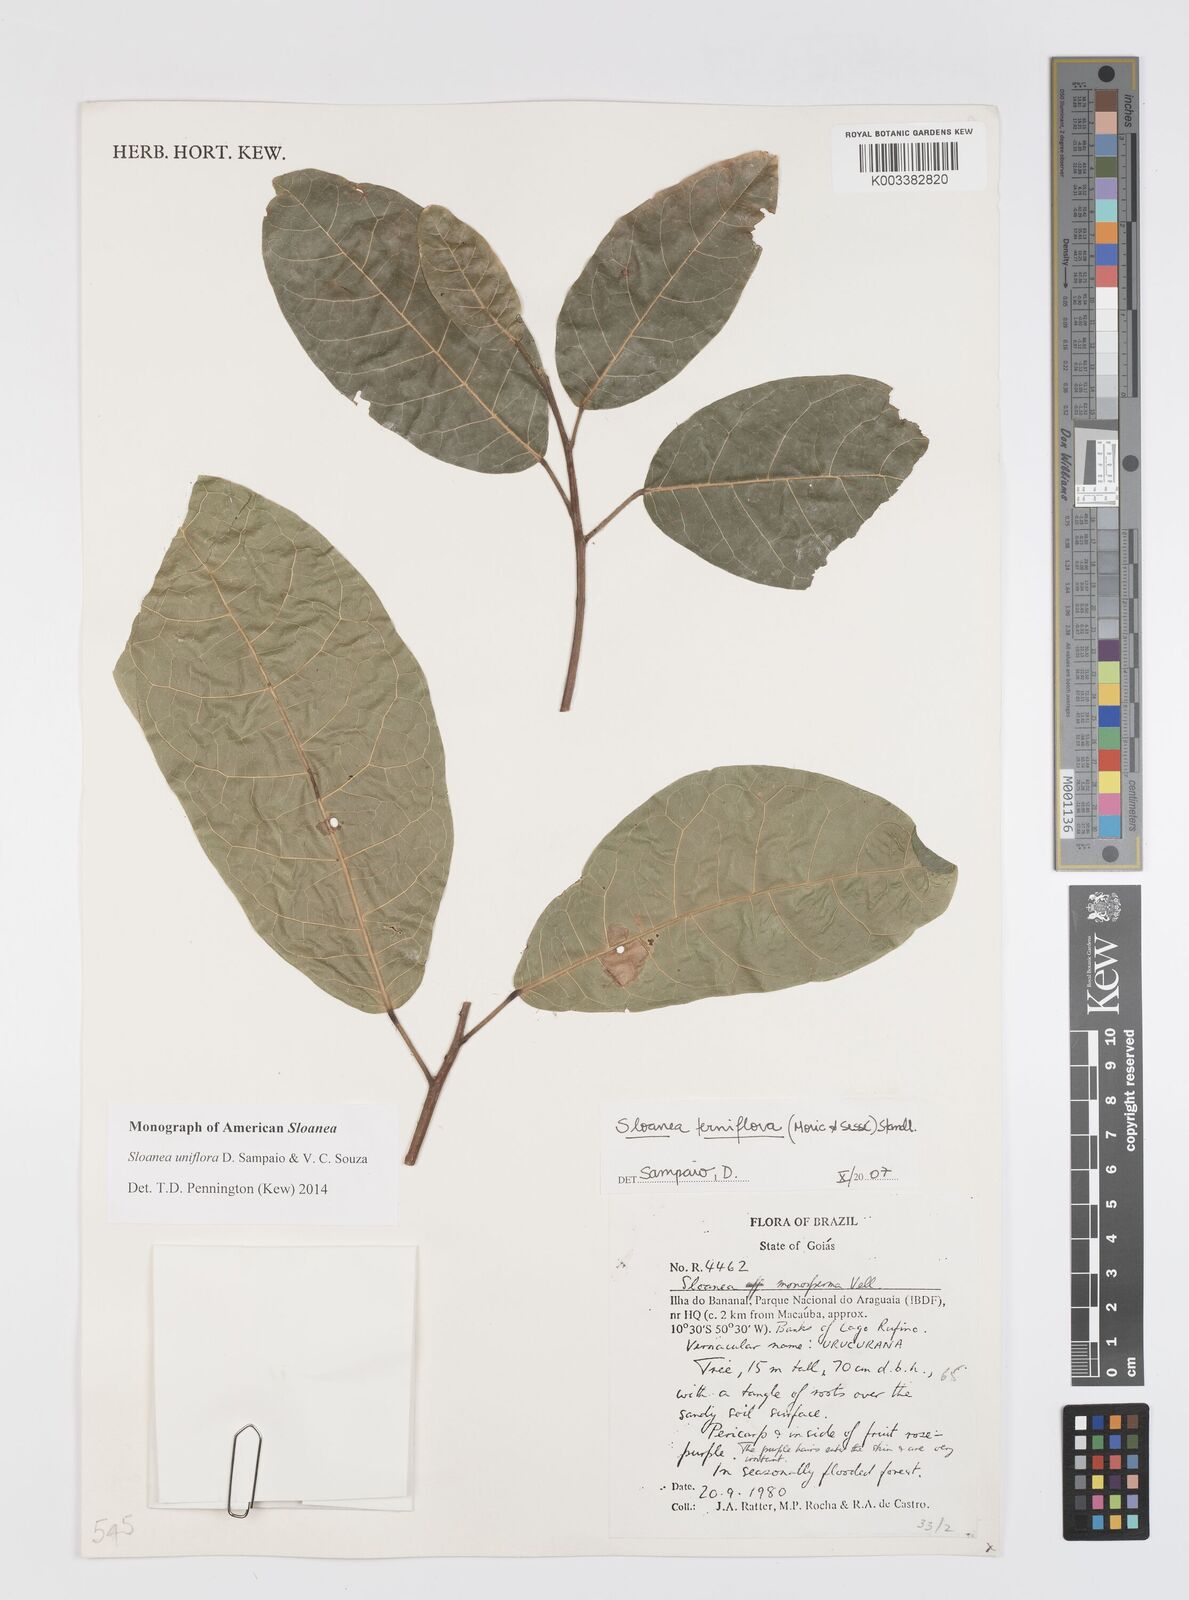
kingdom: Plantae
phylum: Tracheophyta
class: Magnoliopsida
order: Oxalidales
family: Elaeocarpaceae
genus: Sloanea
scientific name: Sloanea uniflora
